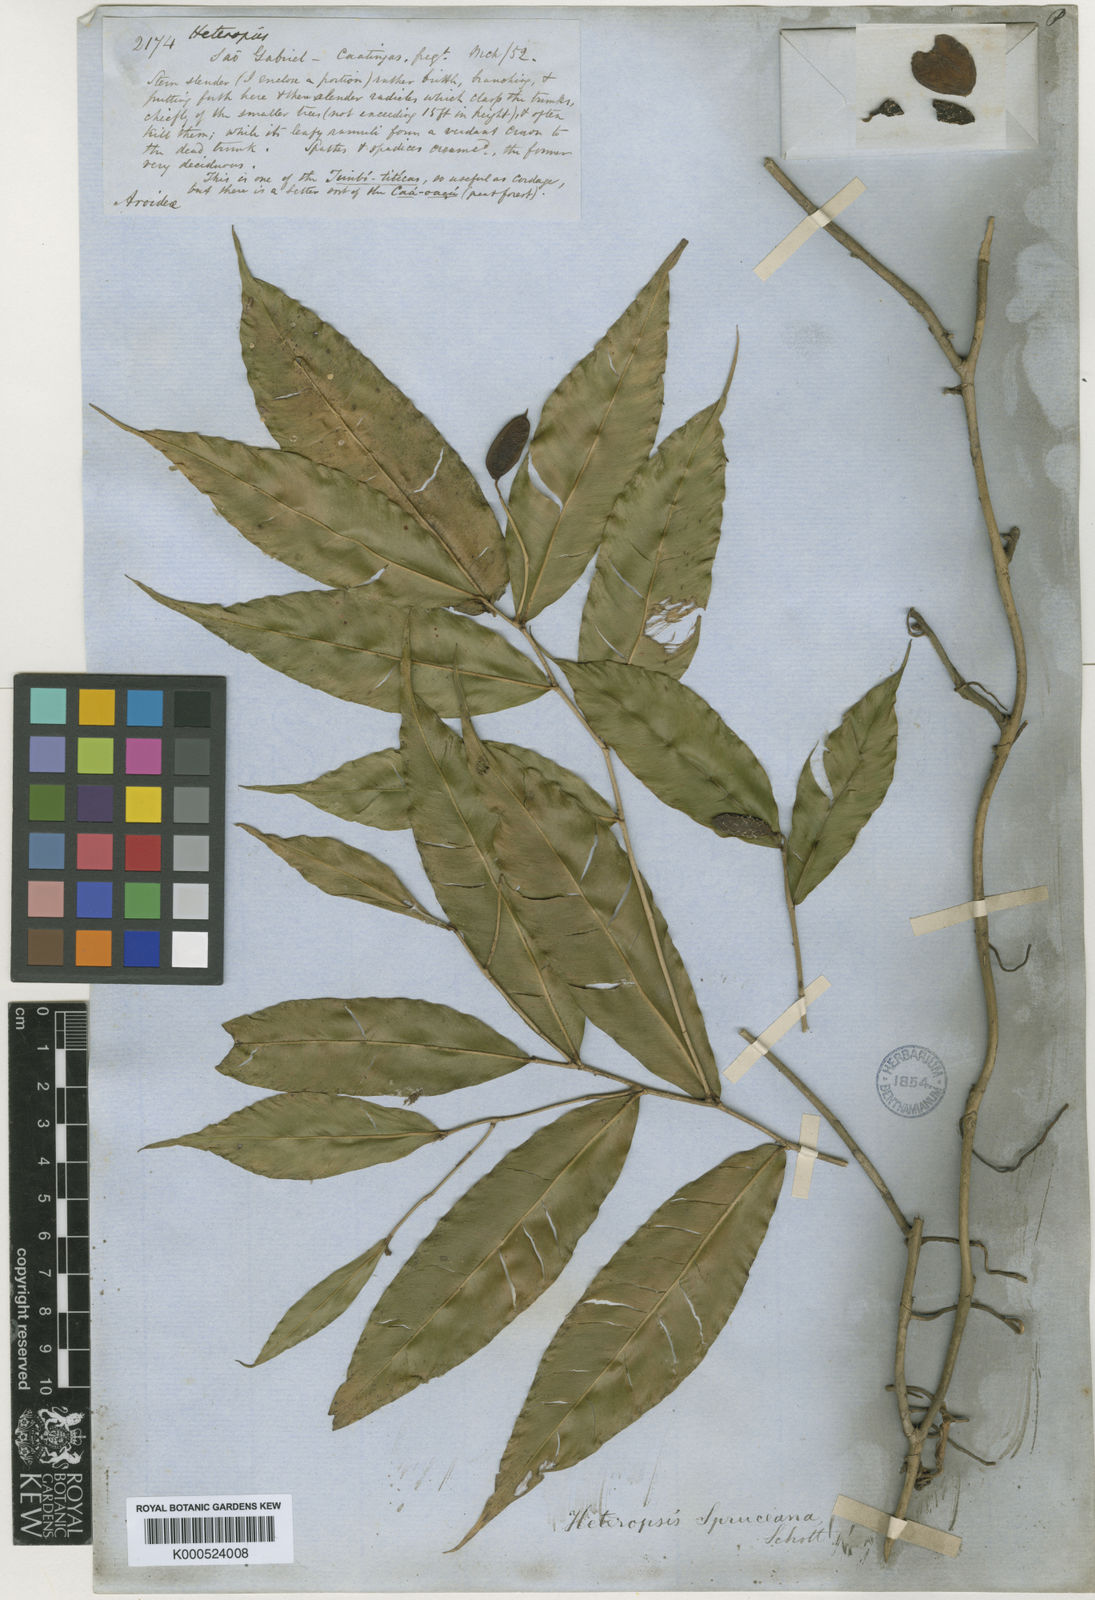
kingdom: Plantae
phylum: Tracheophyta
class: Liliopsida
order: Alismatales
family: Araceae
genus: Heteropsis
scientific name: Heteropsis spruceana
